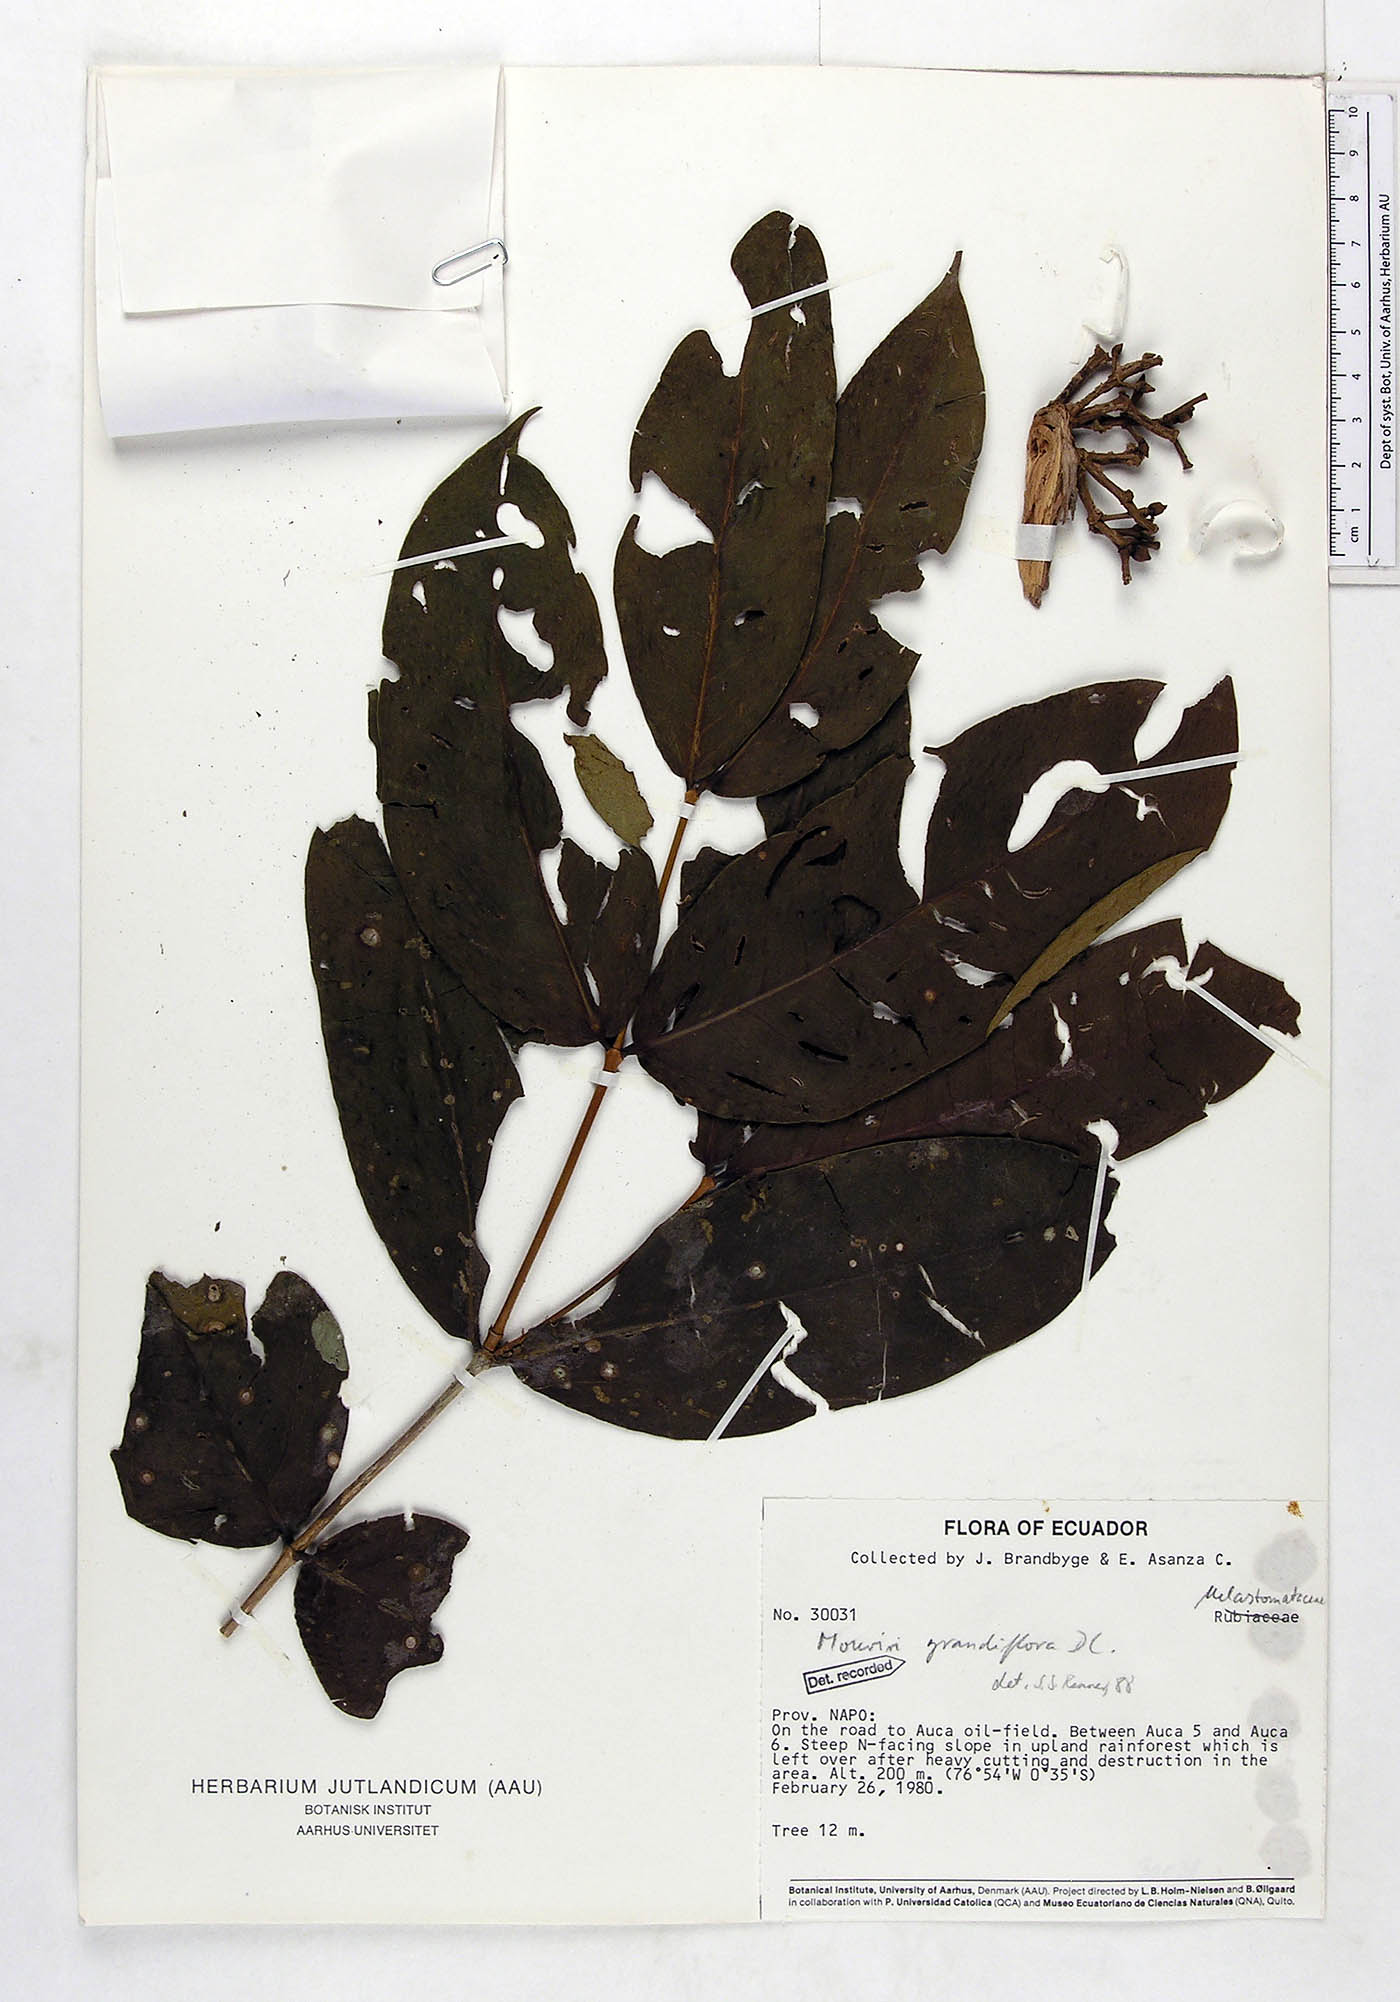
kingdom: Plantae
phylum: Tracheophyta
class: Magnoliopsida
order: Myrtales
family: Melastomataceae
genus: Mouriri
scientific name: Mouriri grandiflora
